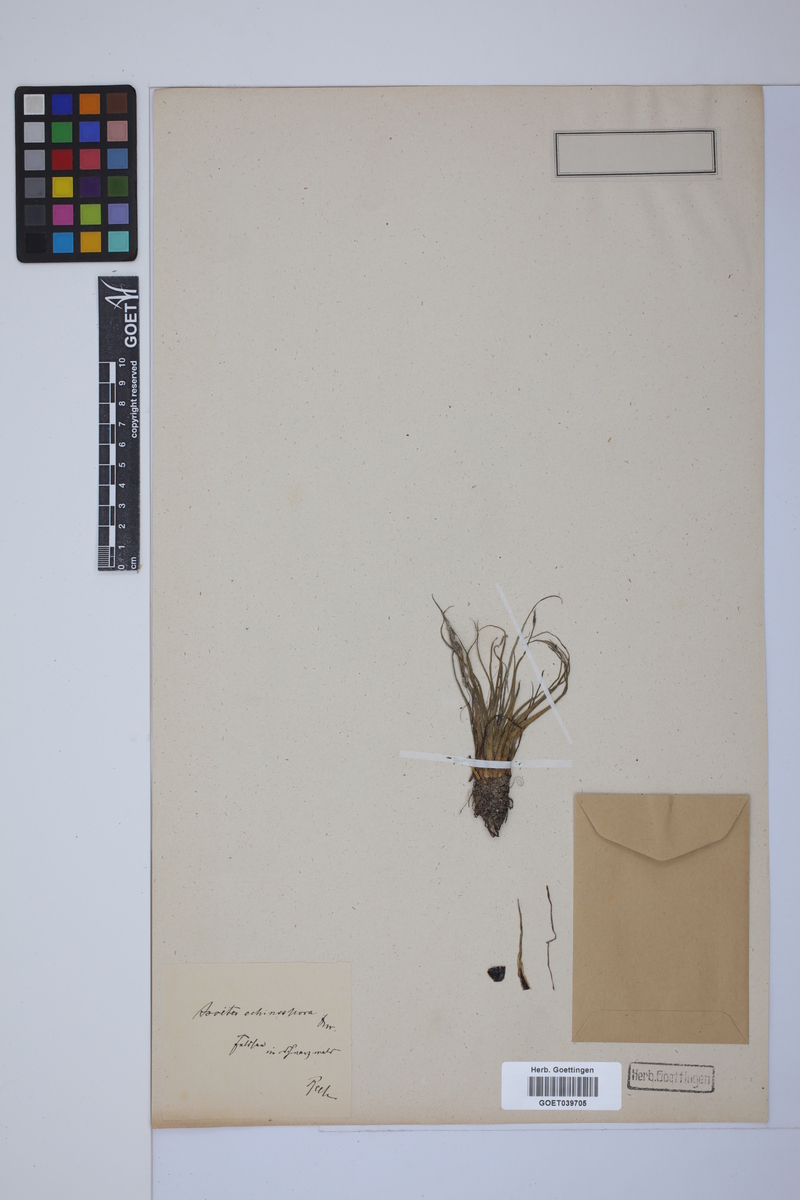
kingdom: Plantae
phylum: Tracheophyta
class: Lycopodiopsida
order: Isoetales
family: Isoetaceae
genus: Isoetes
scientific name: Isoetes echinospora
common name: Spring quillwort
